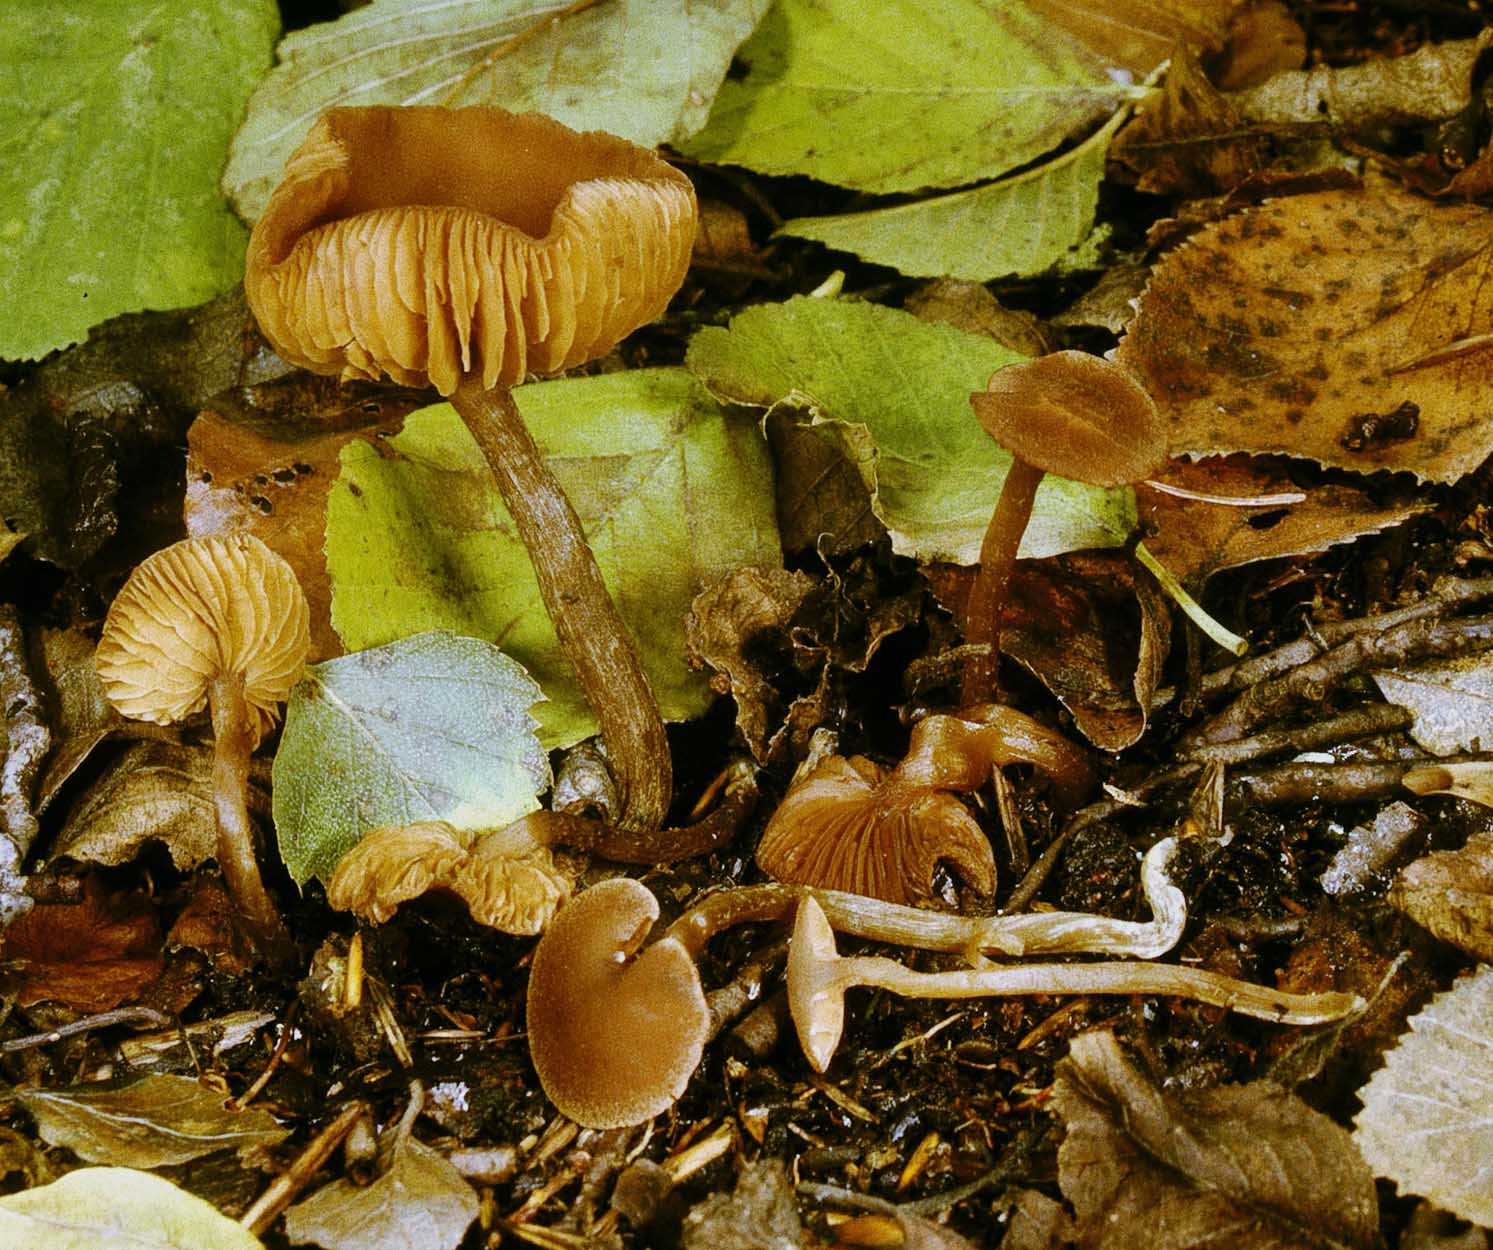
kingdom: Fungi
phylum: Basidiomycota
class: Agaricomycetes
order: Agaricales
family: Hymenogastraceae
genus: Naucoria
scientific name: Naucoria subconspersa
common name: filtet knaphat
